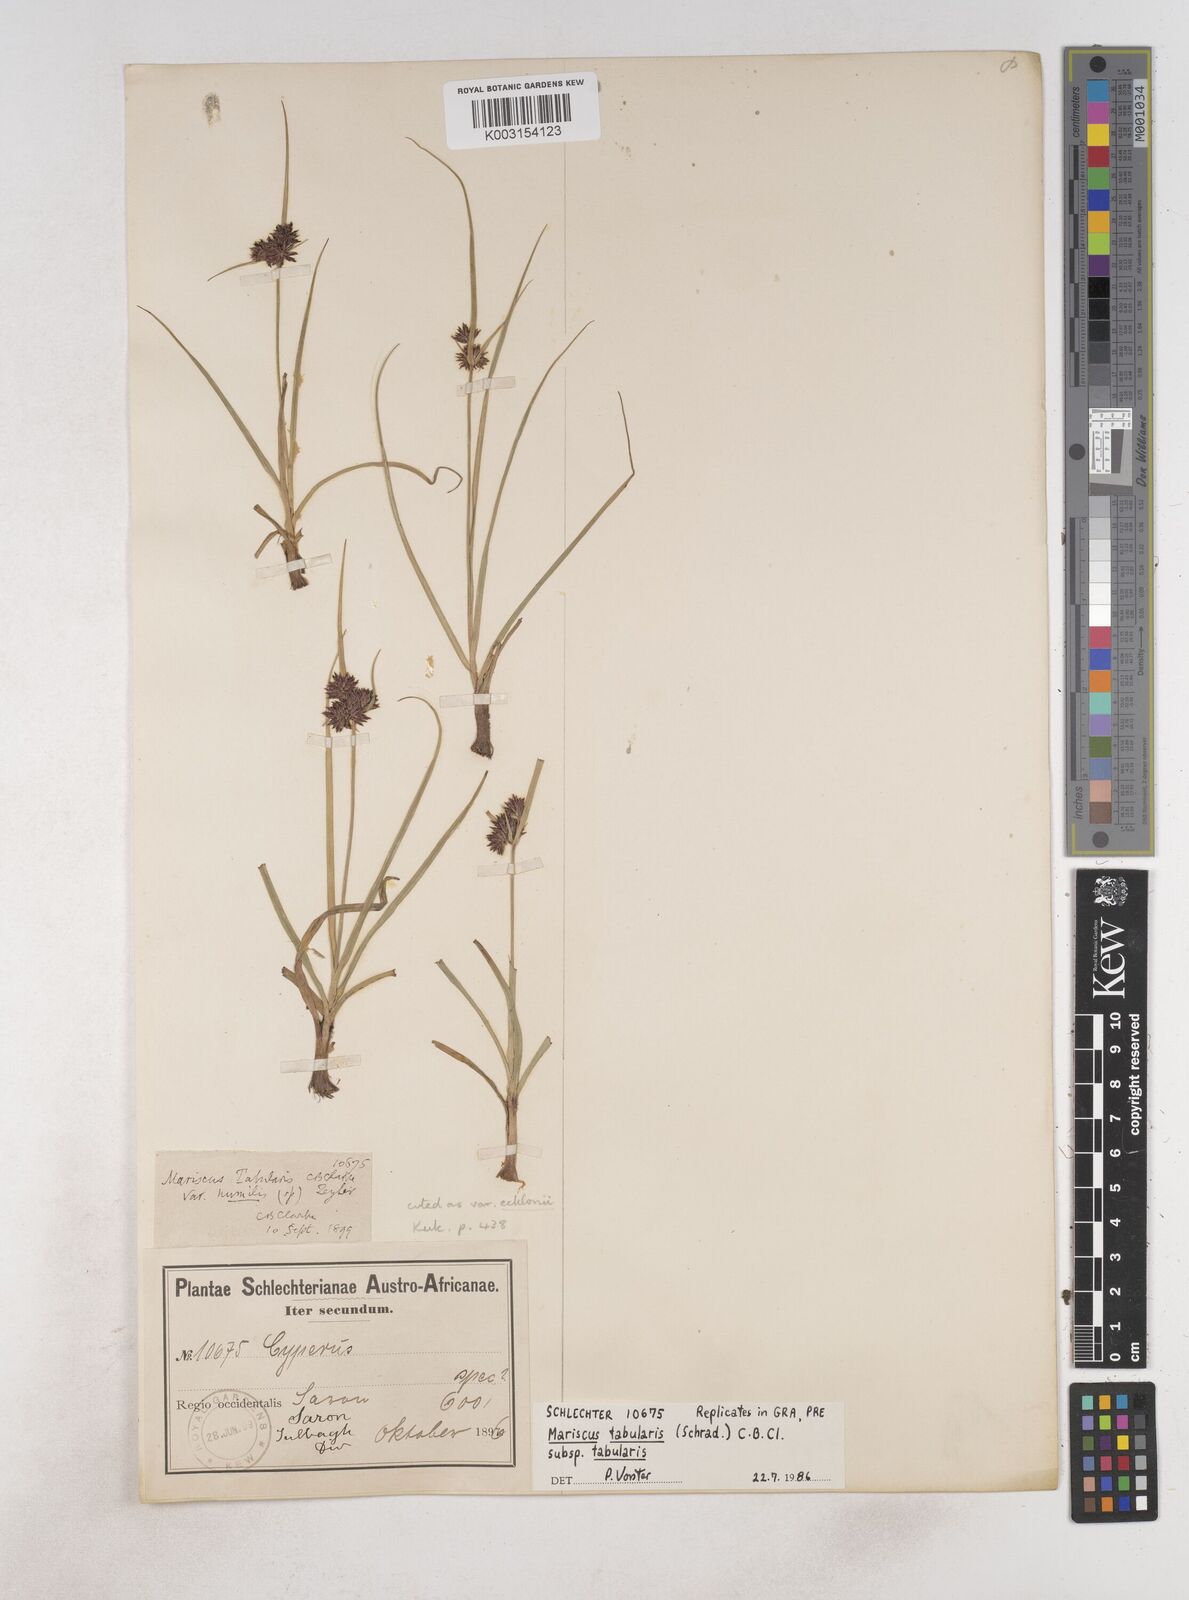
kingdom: Plantae
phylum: Tracheophyta
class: Liliopsida
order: Poales
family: Cyperaceae
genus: Cyperus
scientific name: Cyperus tabularis
